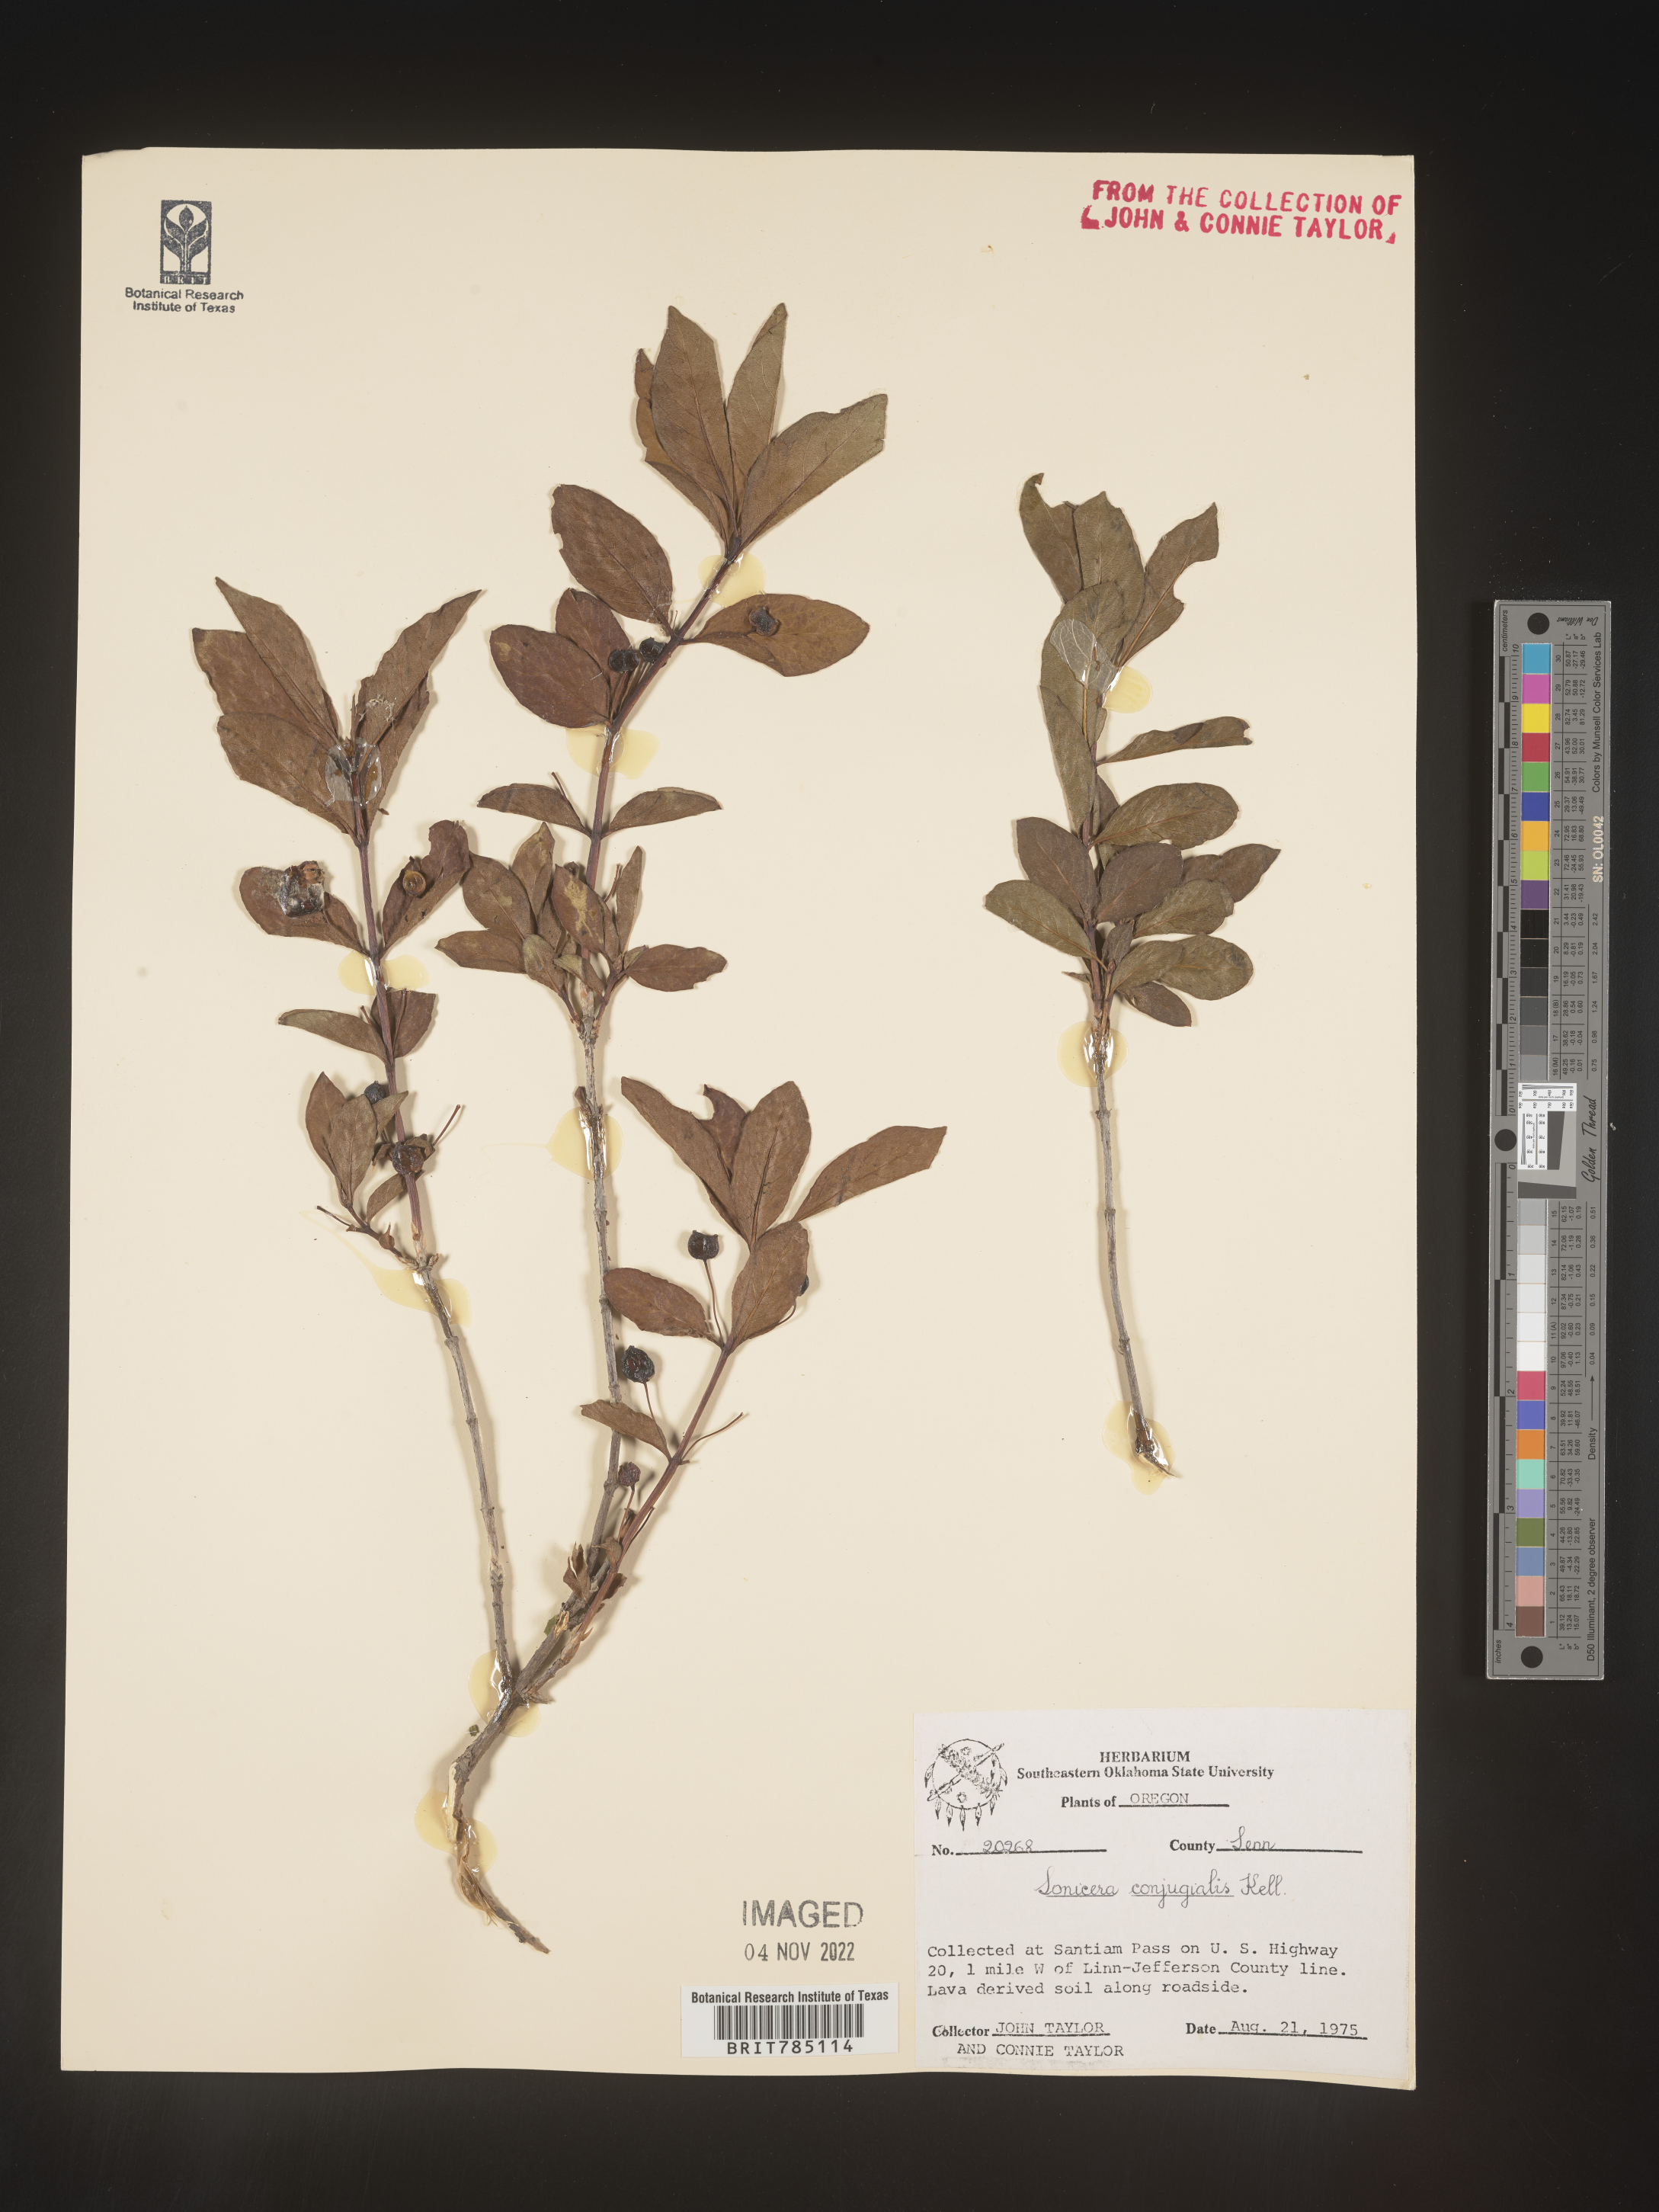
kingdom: Plantae
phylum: Tracheophyta
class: Magnoliopsida
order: Dipsacales
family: Caprifoliaceae
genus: Lonicera
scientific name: Lonicera
